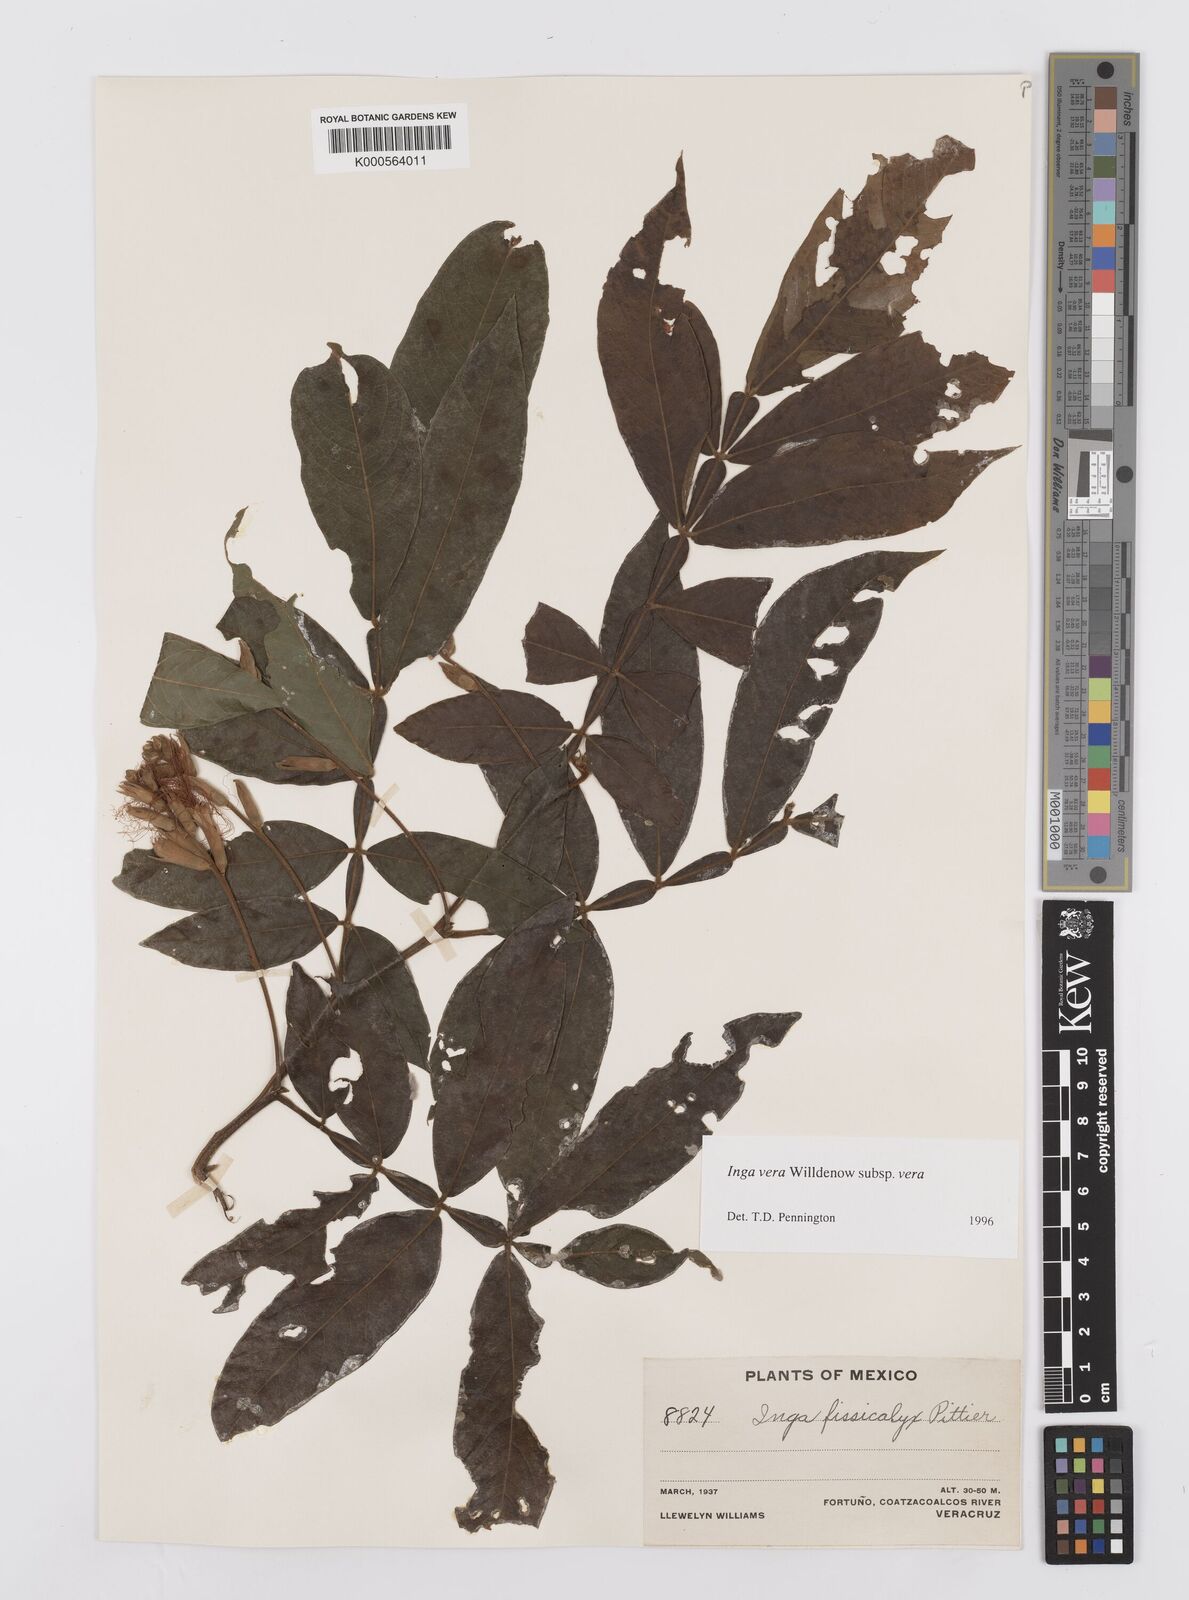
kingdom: Plantae
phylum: Tracheophyta
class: Magnoliopsida
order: Fabales
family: Fabaceae
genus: Inga
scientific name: Inga vera
